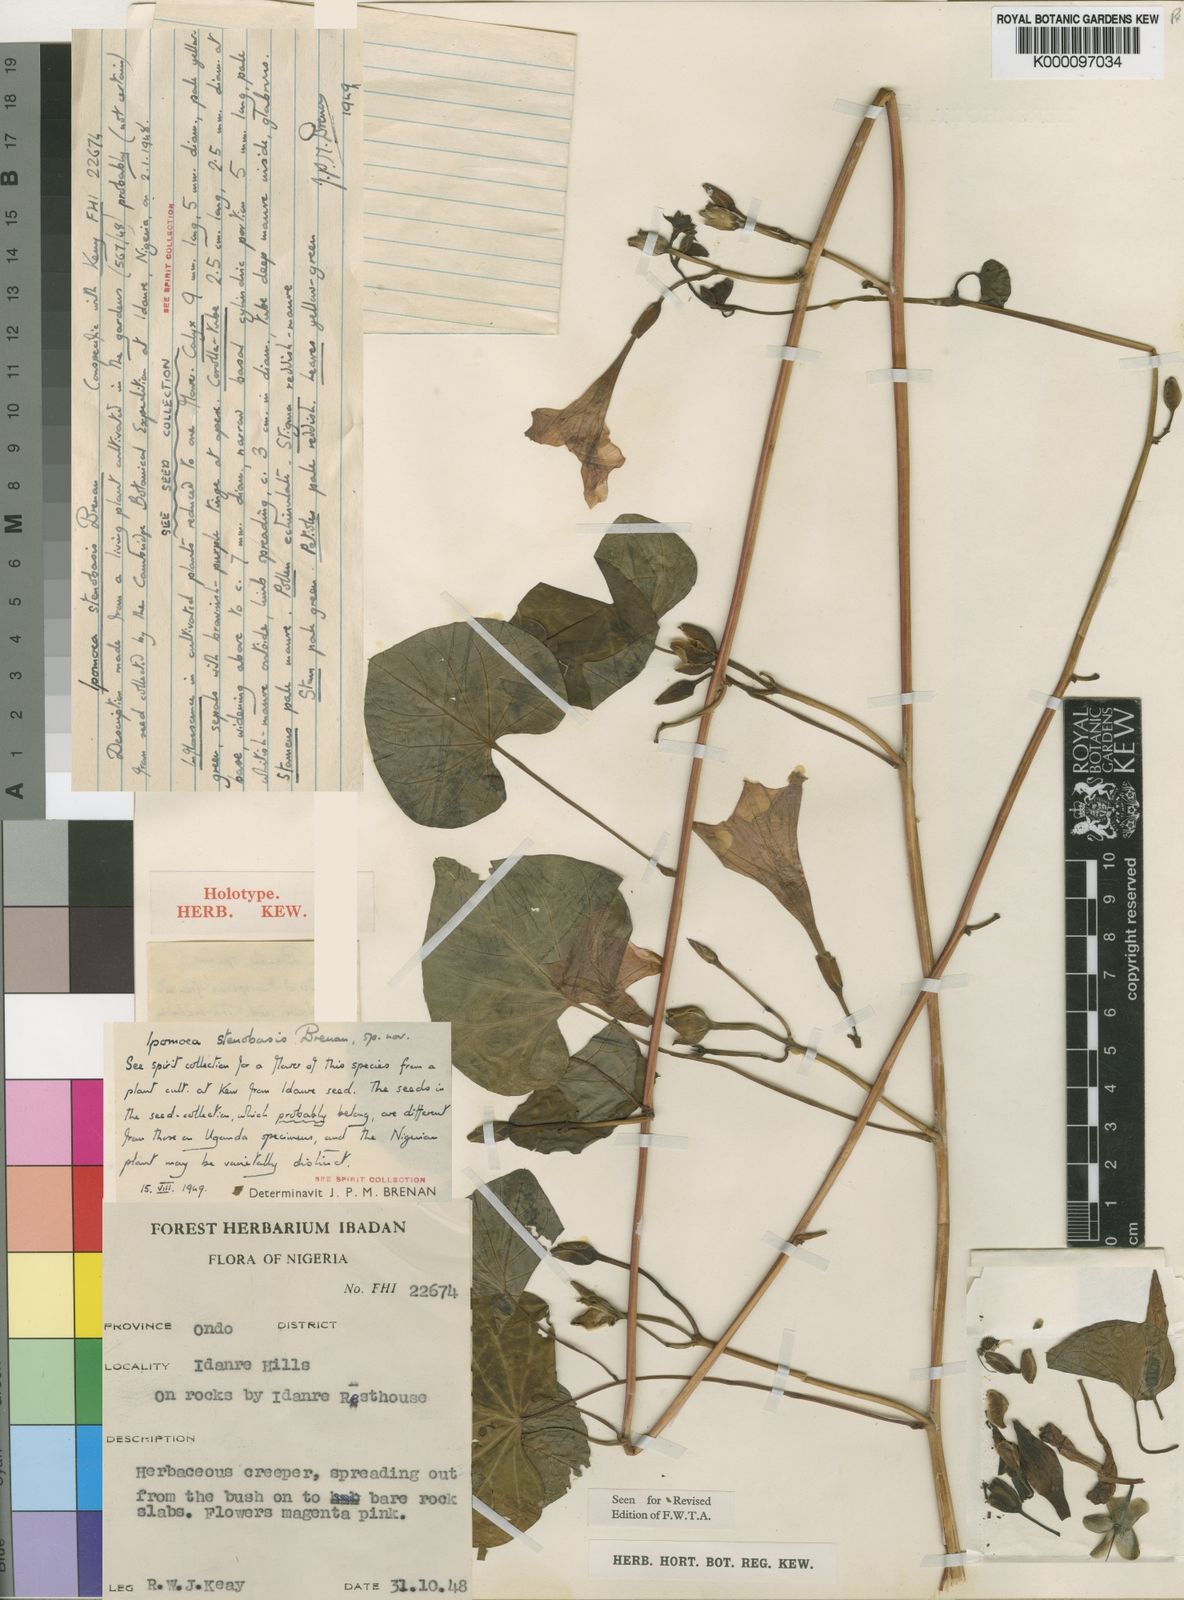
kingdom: Plantae
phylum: Tracheophyta
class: Magnoliopsida
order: Solanales
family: Convolvulaceae
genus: Ipomoea
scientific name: Ipomoea stenobasis
